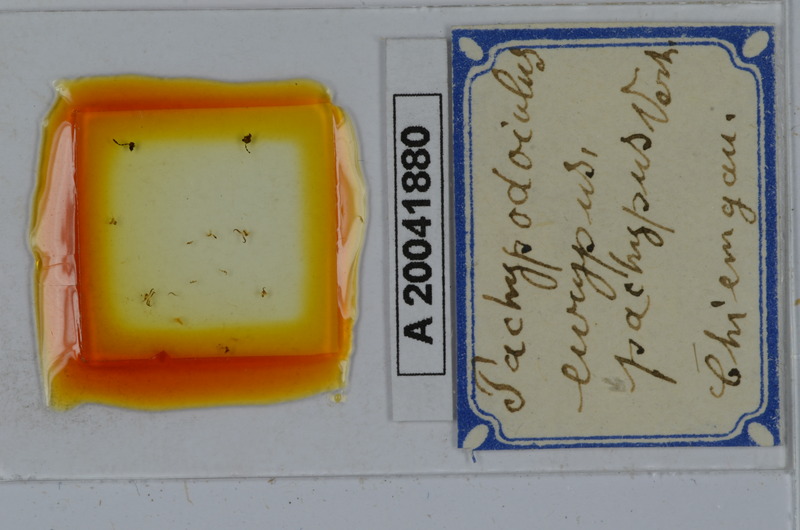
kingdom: Animalia
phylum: Arthropoda
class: Diplopoda
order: Julida
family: Julidae
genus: Pachypodoiulus
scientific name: Pachypodoiulus eurypus
